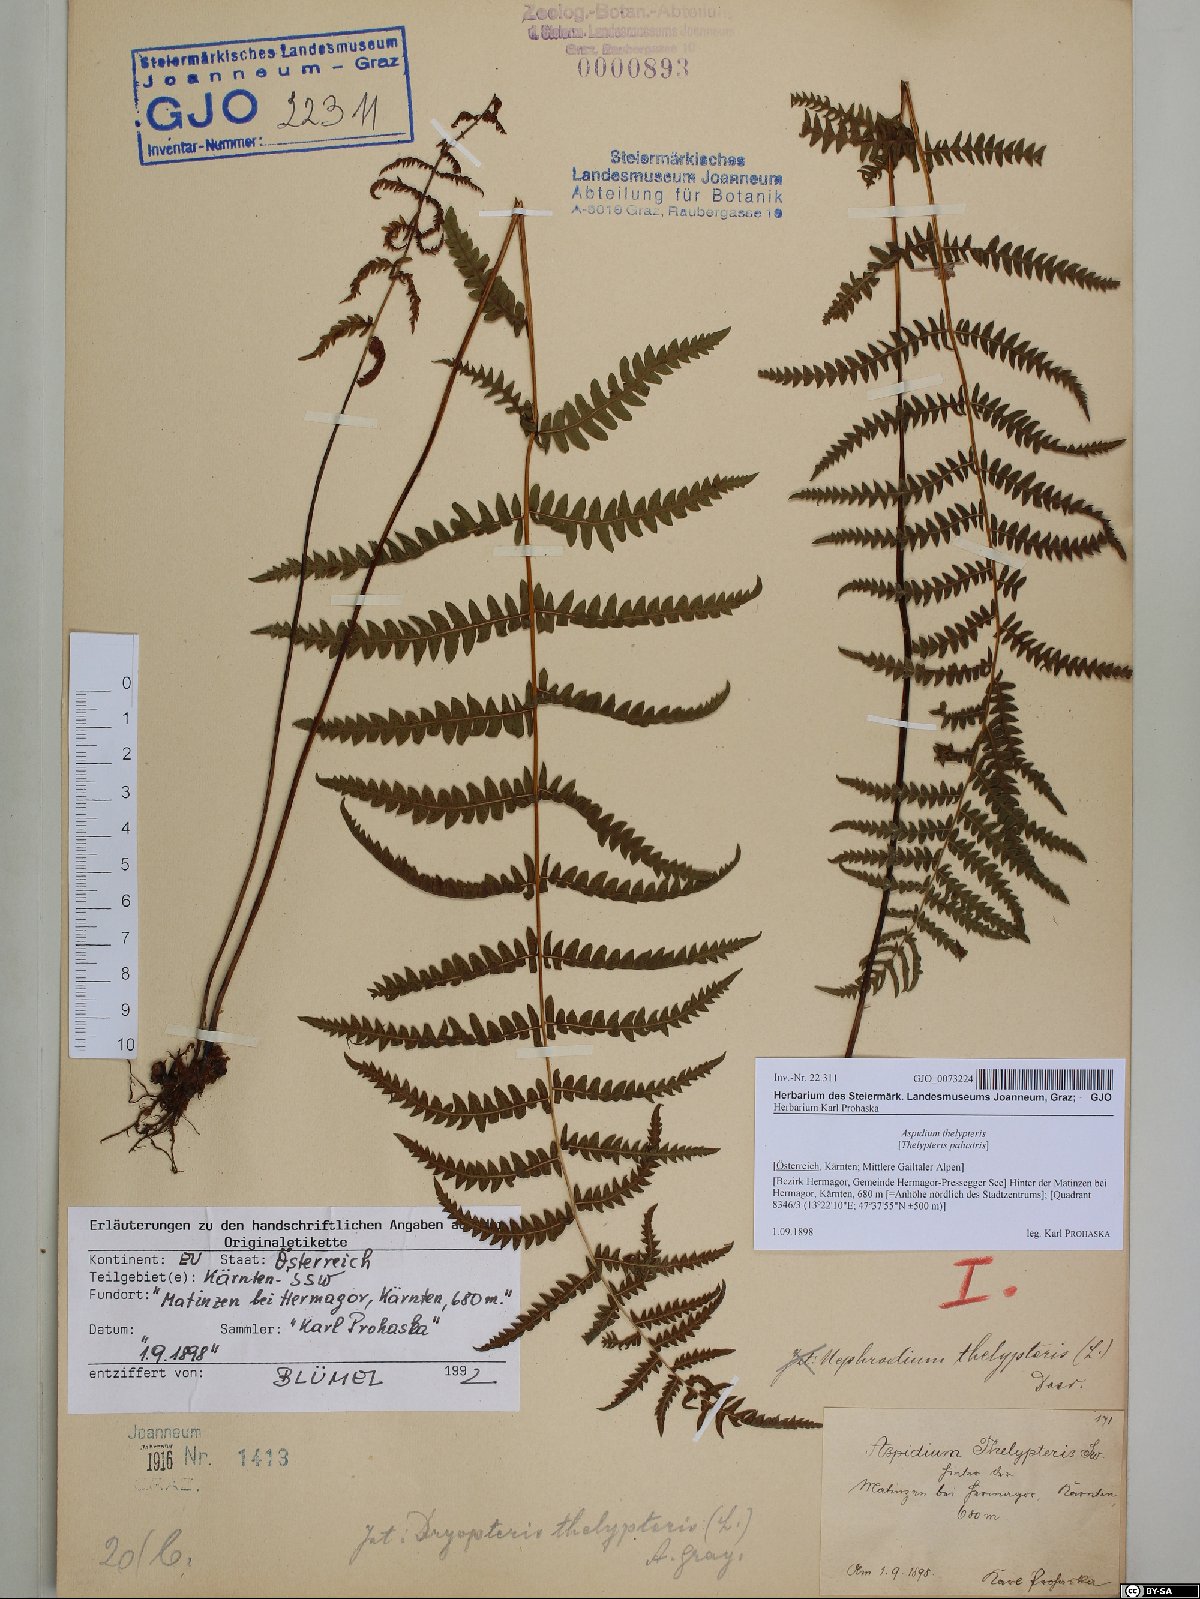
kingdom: Plantae
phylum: Tracheophyta
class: Polypodiopsida
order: Polypodiales
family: Thelypteridaceae
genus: Thelypteris
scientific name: Thelypteris palustris
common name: Marsh fern
